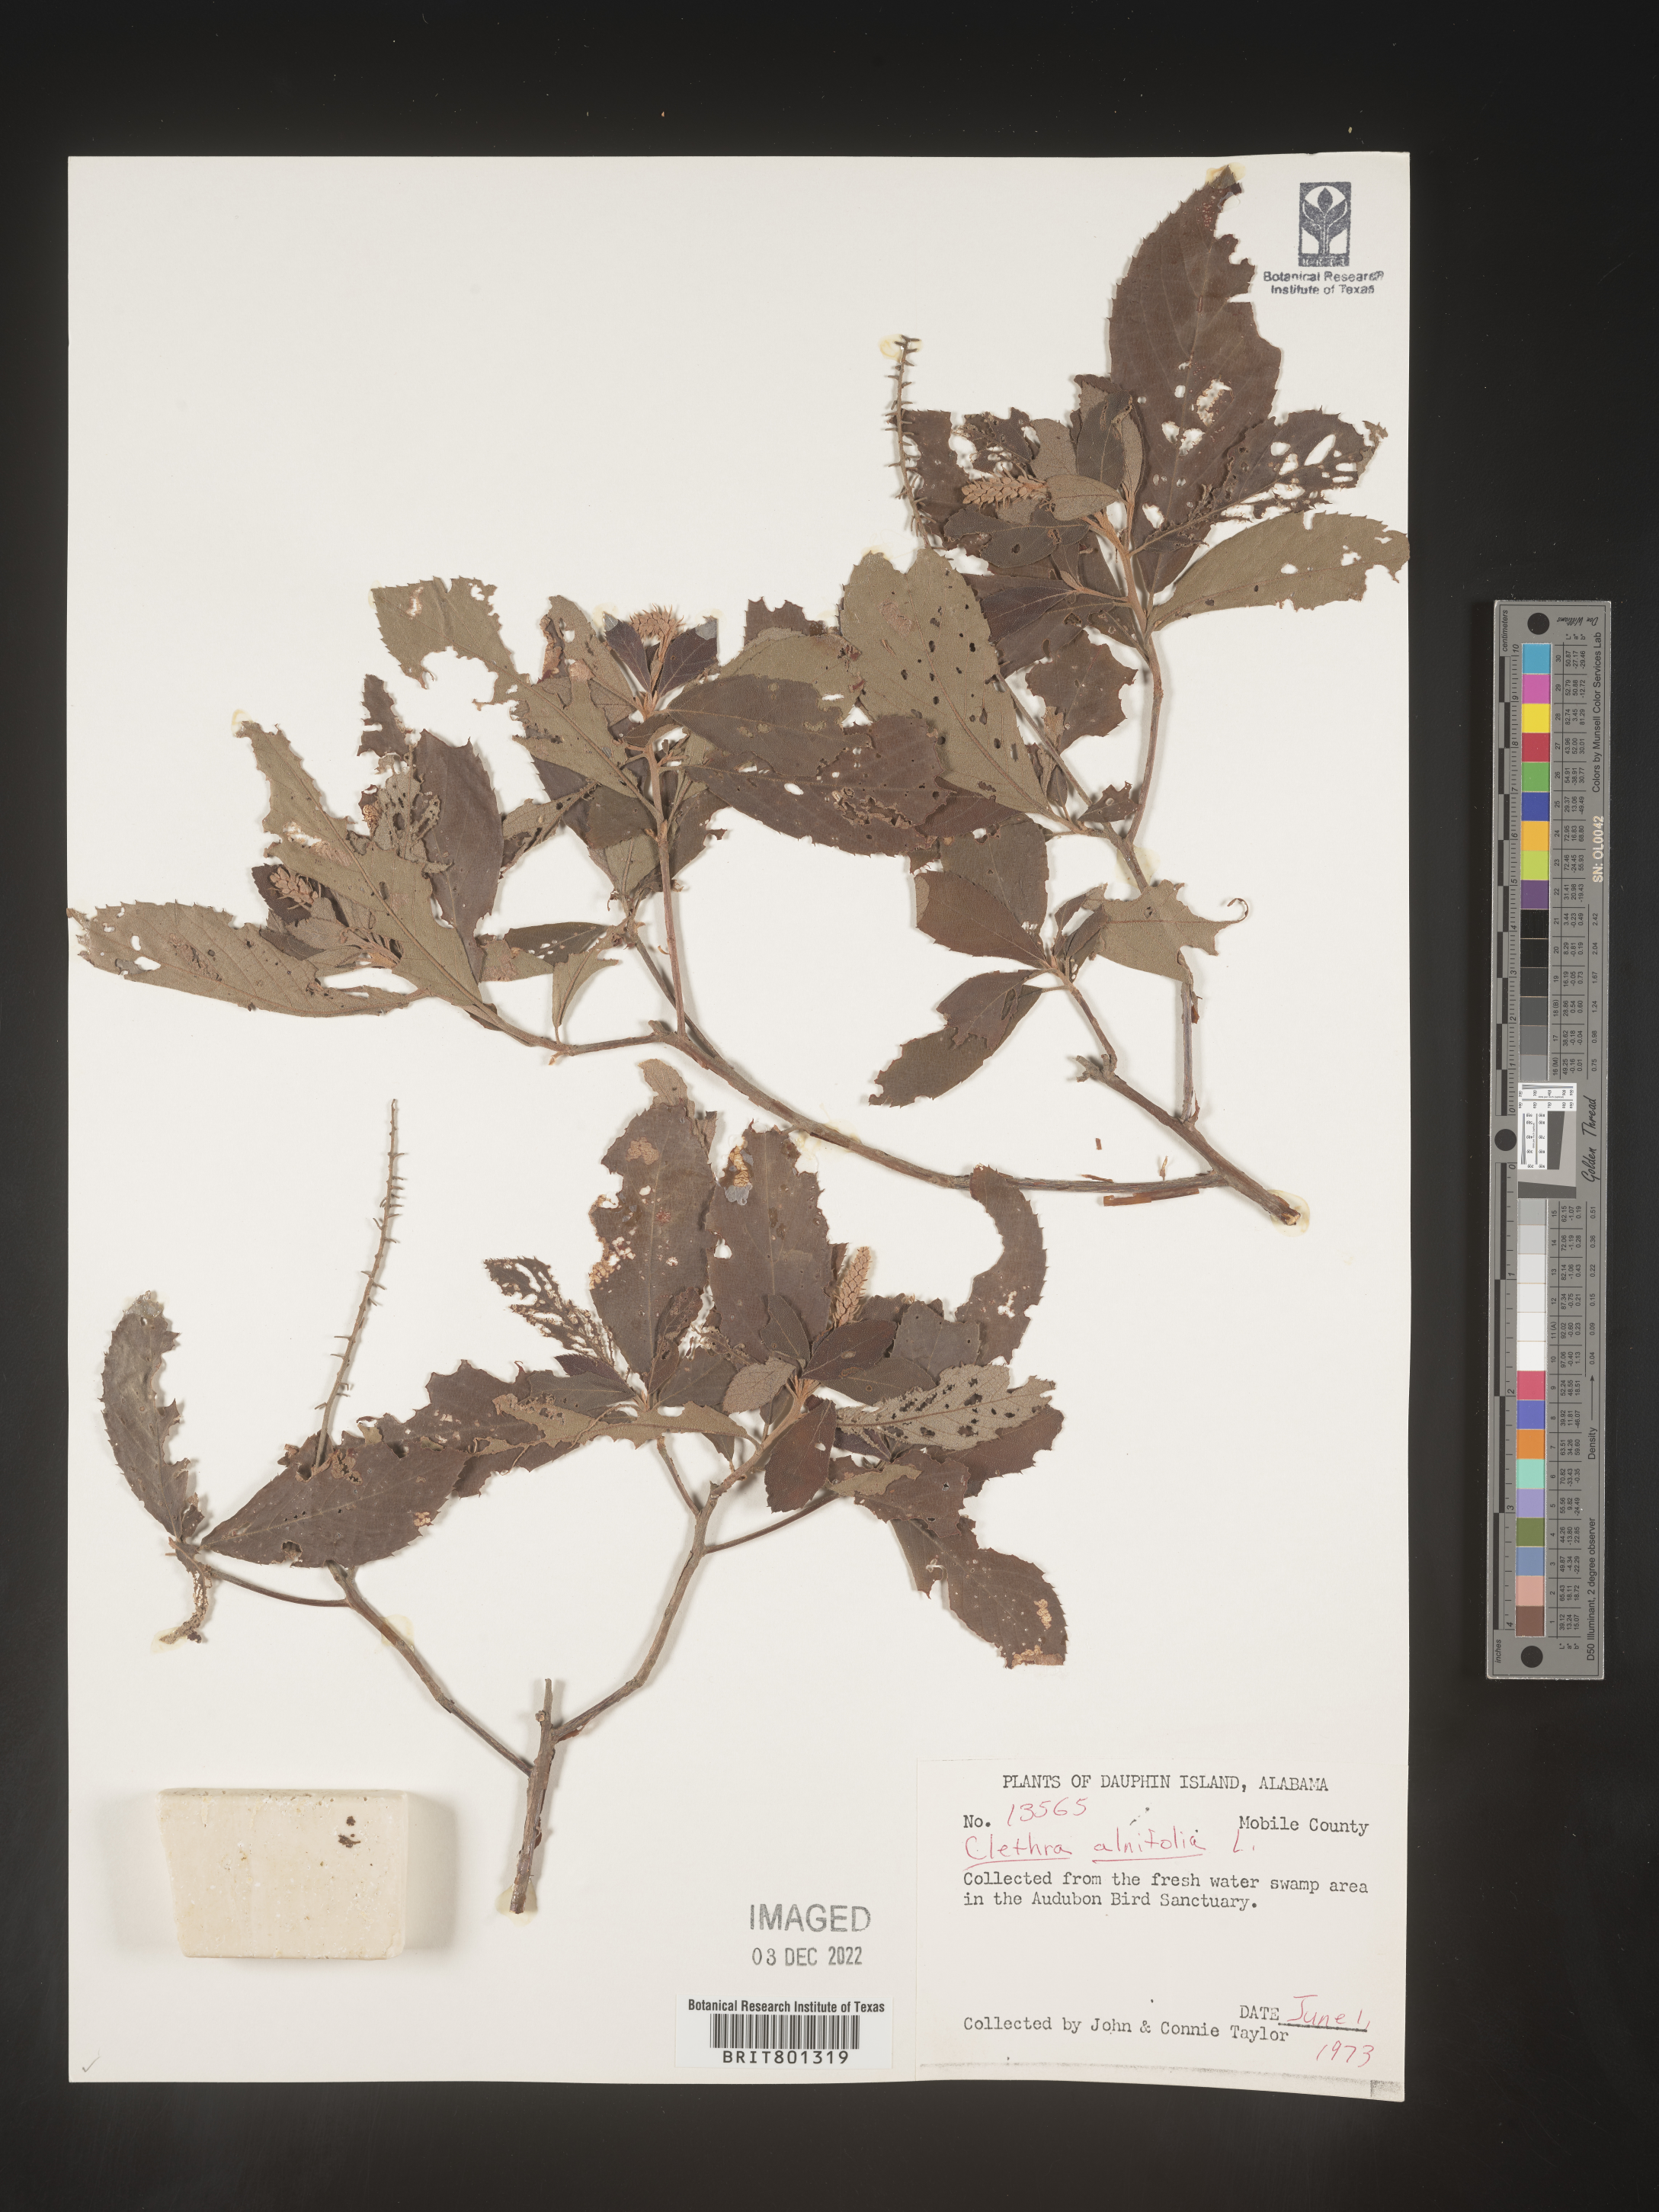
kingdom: Plantae
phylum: Tracheophyta
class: Magnoliopsida
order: Ericales
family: Clethraceae
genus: Clethra
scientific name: Clethra alnifolia
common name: Sweet pepperbush
